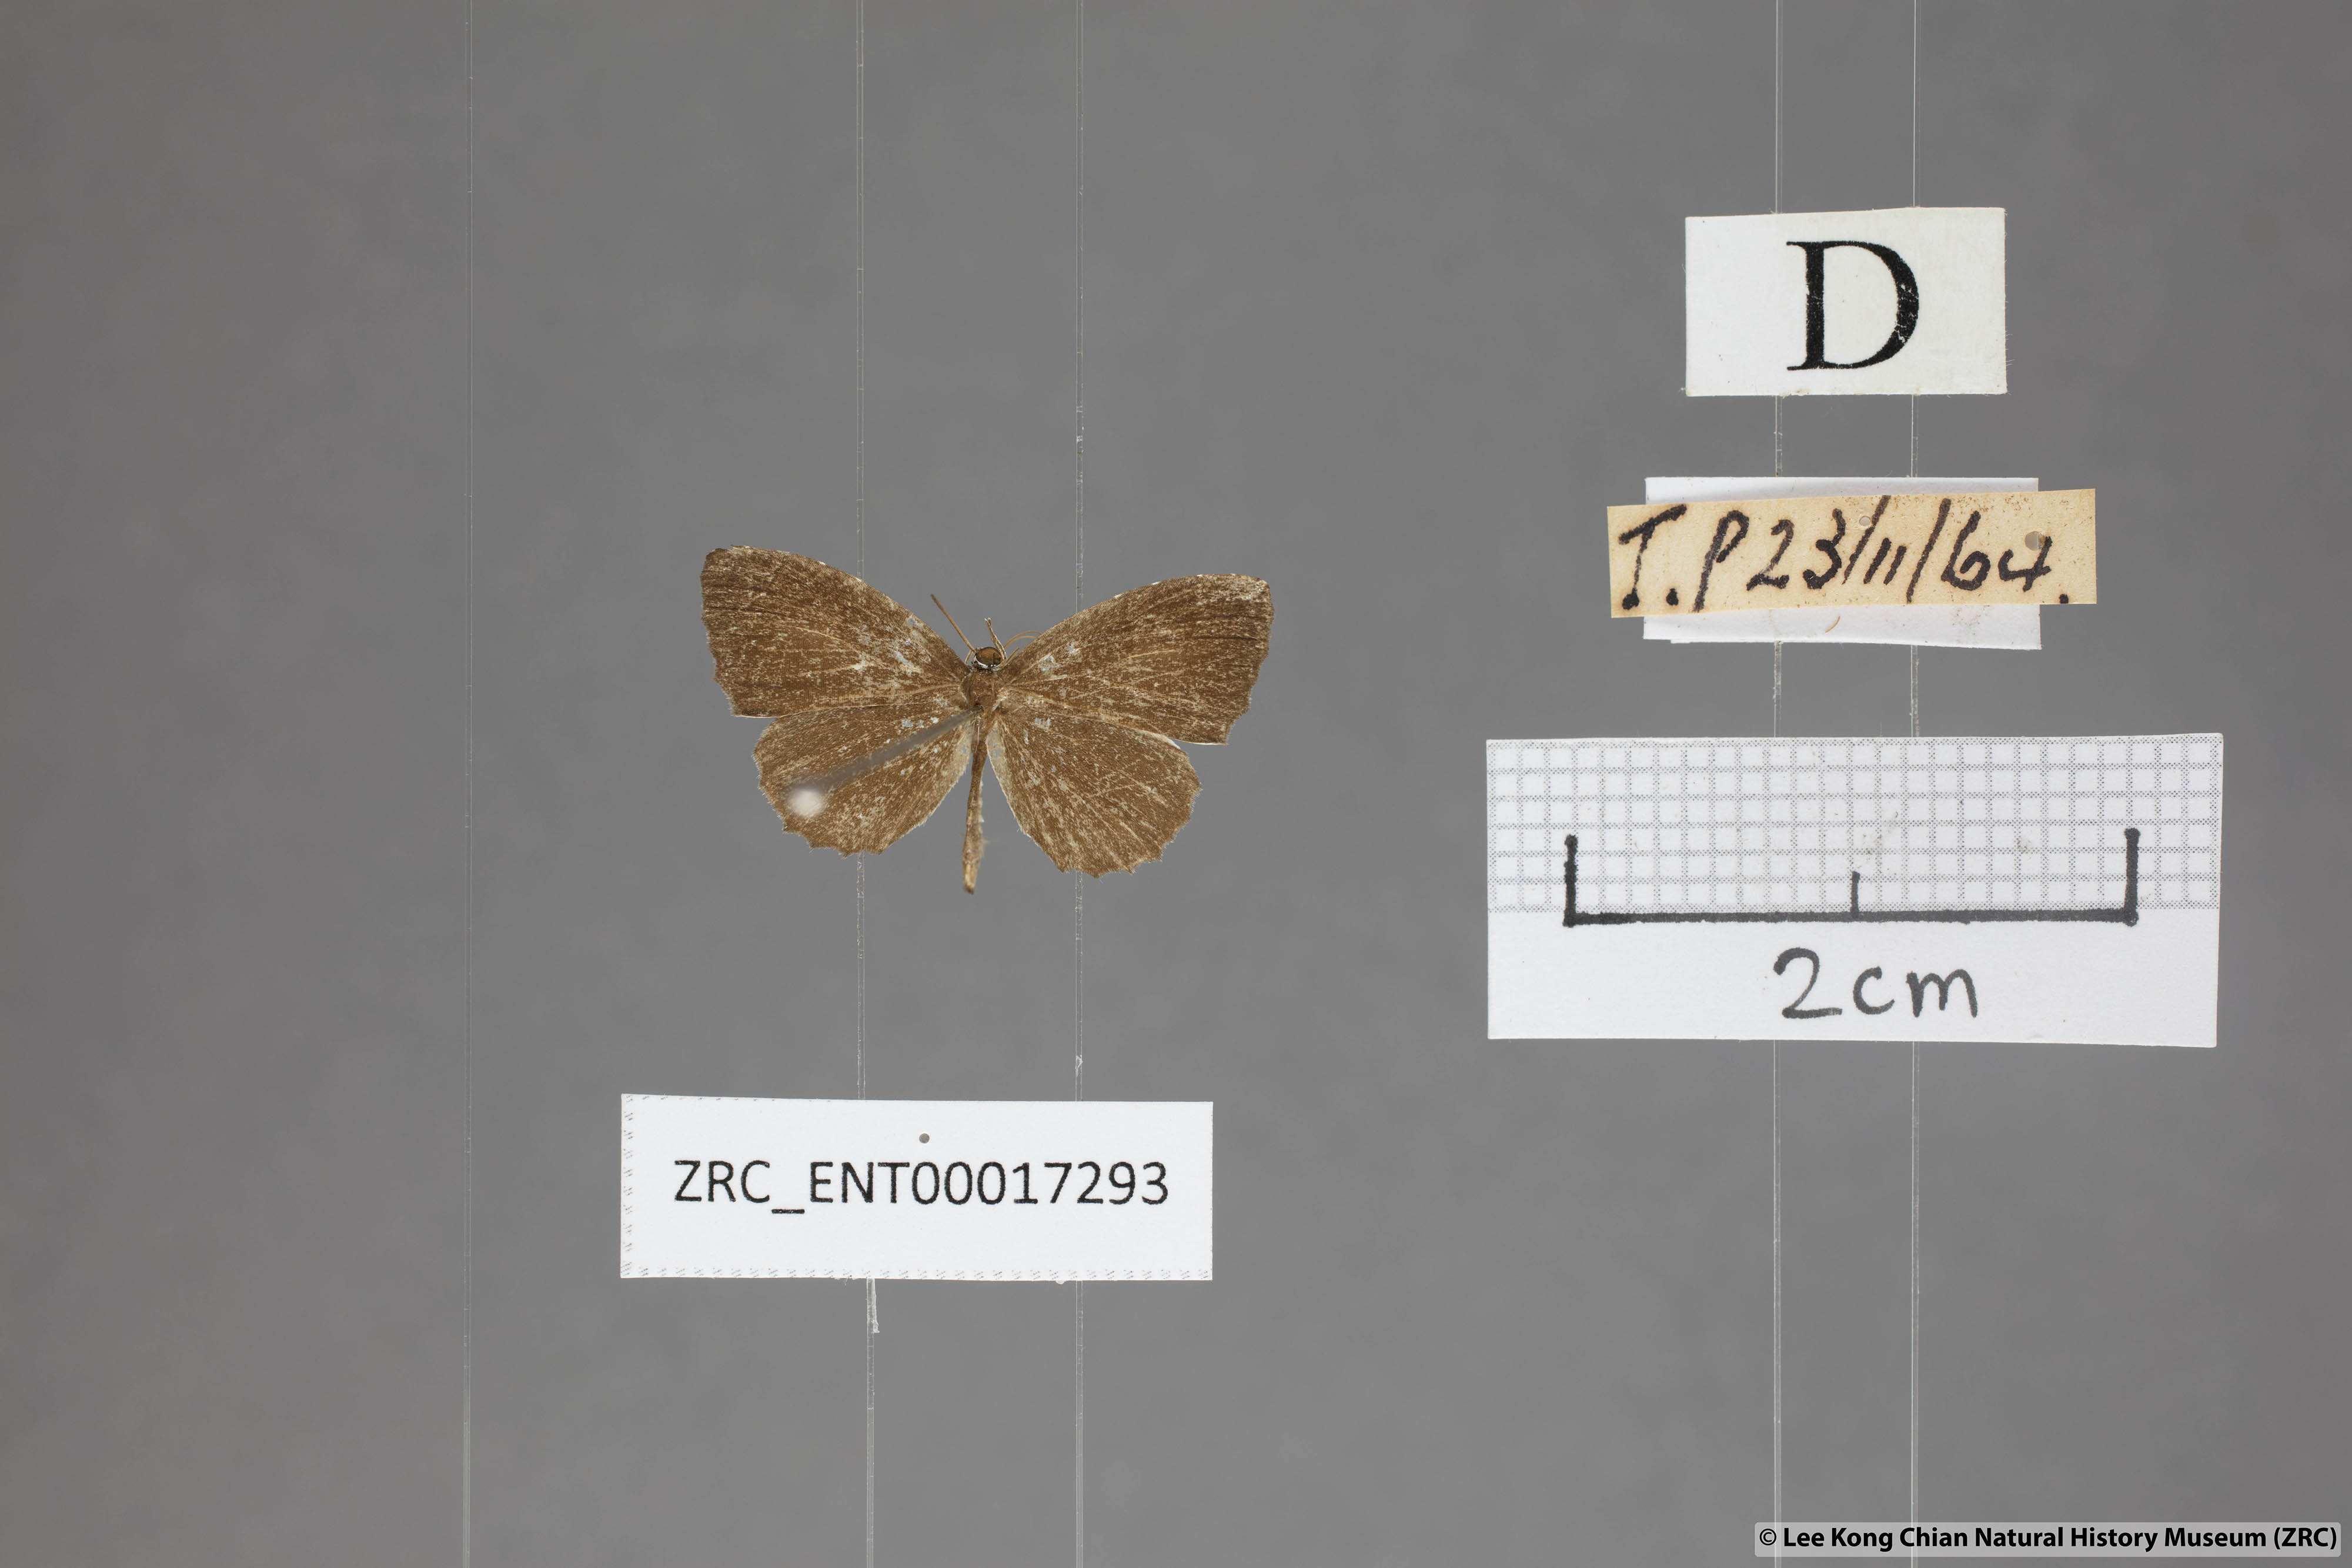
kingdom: Animalia
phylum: Arthropoda
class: Insecta
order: Lepidoptera
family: Lycaenidae
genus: Allotinus
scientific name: Allotinus substrigosa
